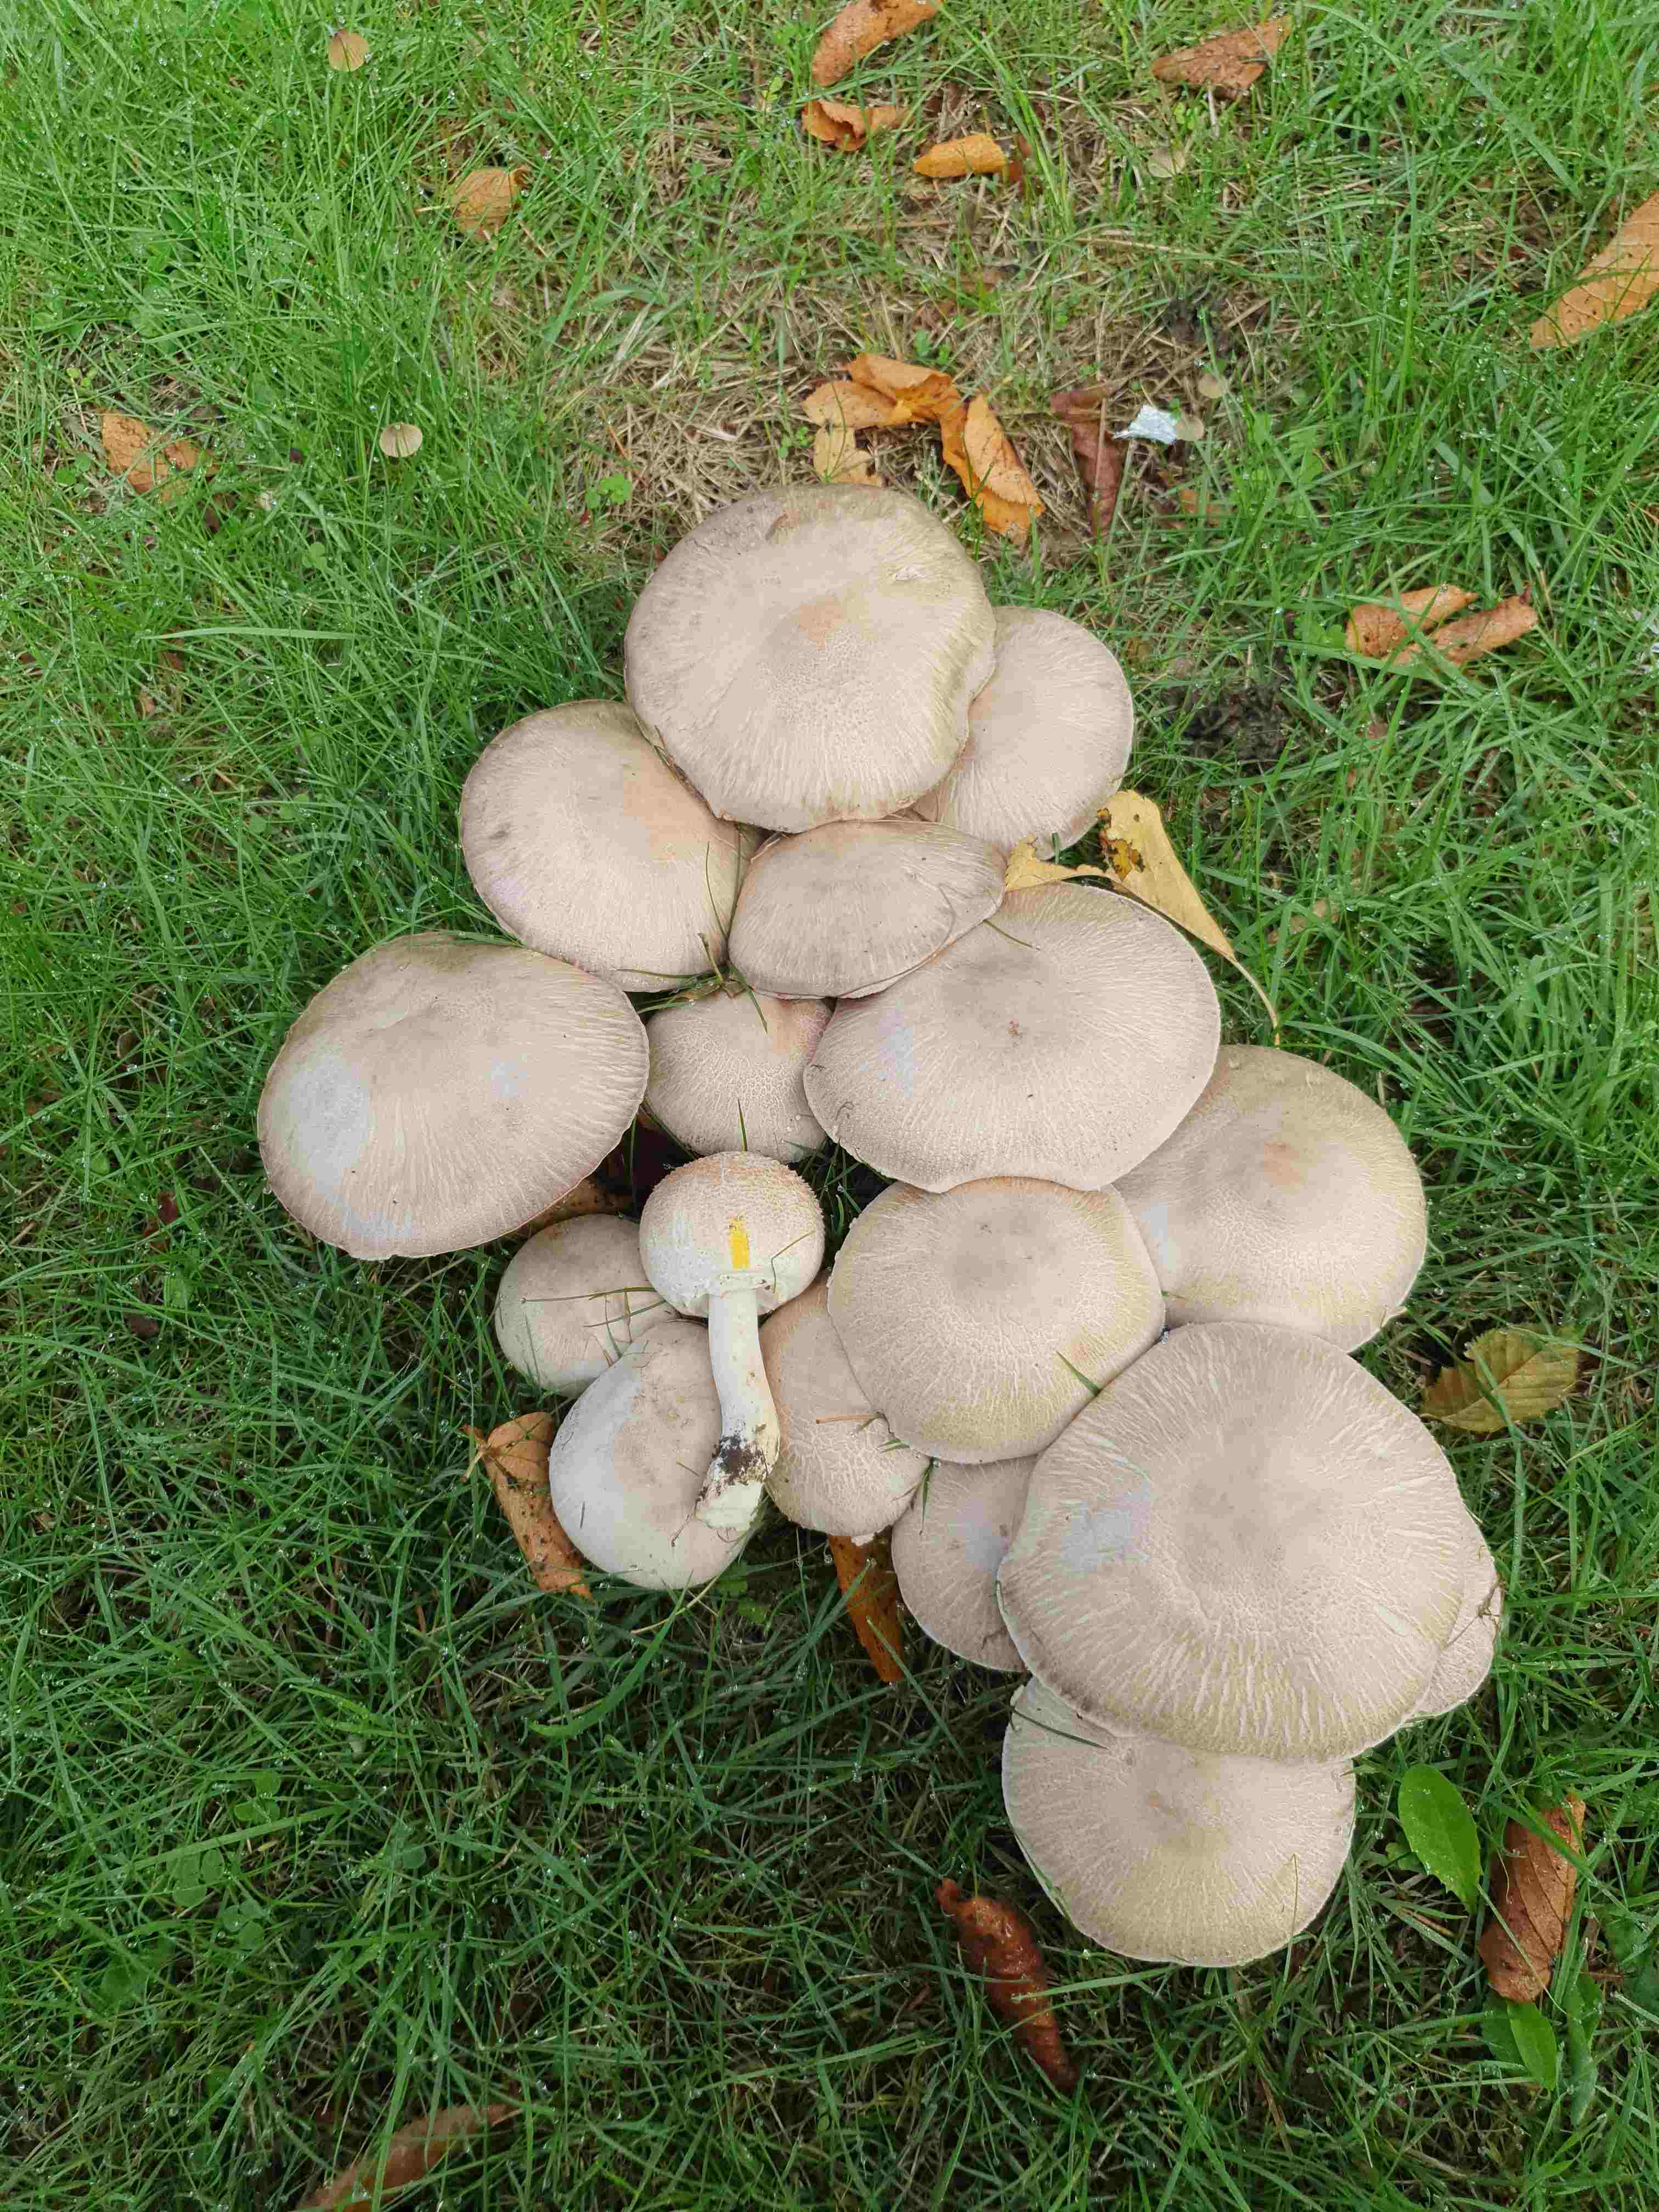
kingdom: Fungi
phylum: Basidiomycota
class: Agaricomycetes
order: Agaricales
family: Agaricaceae
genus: Agaricus
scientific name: Agaricus xanthodermus
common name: karbol-champignon
